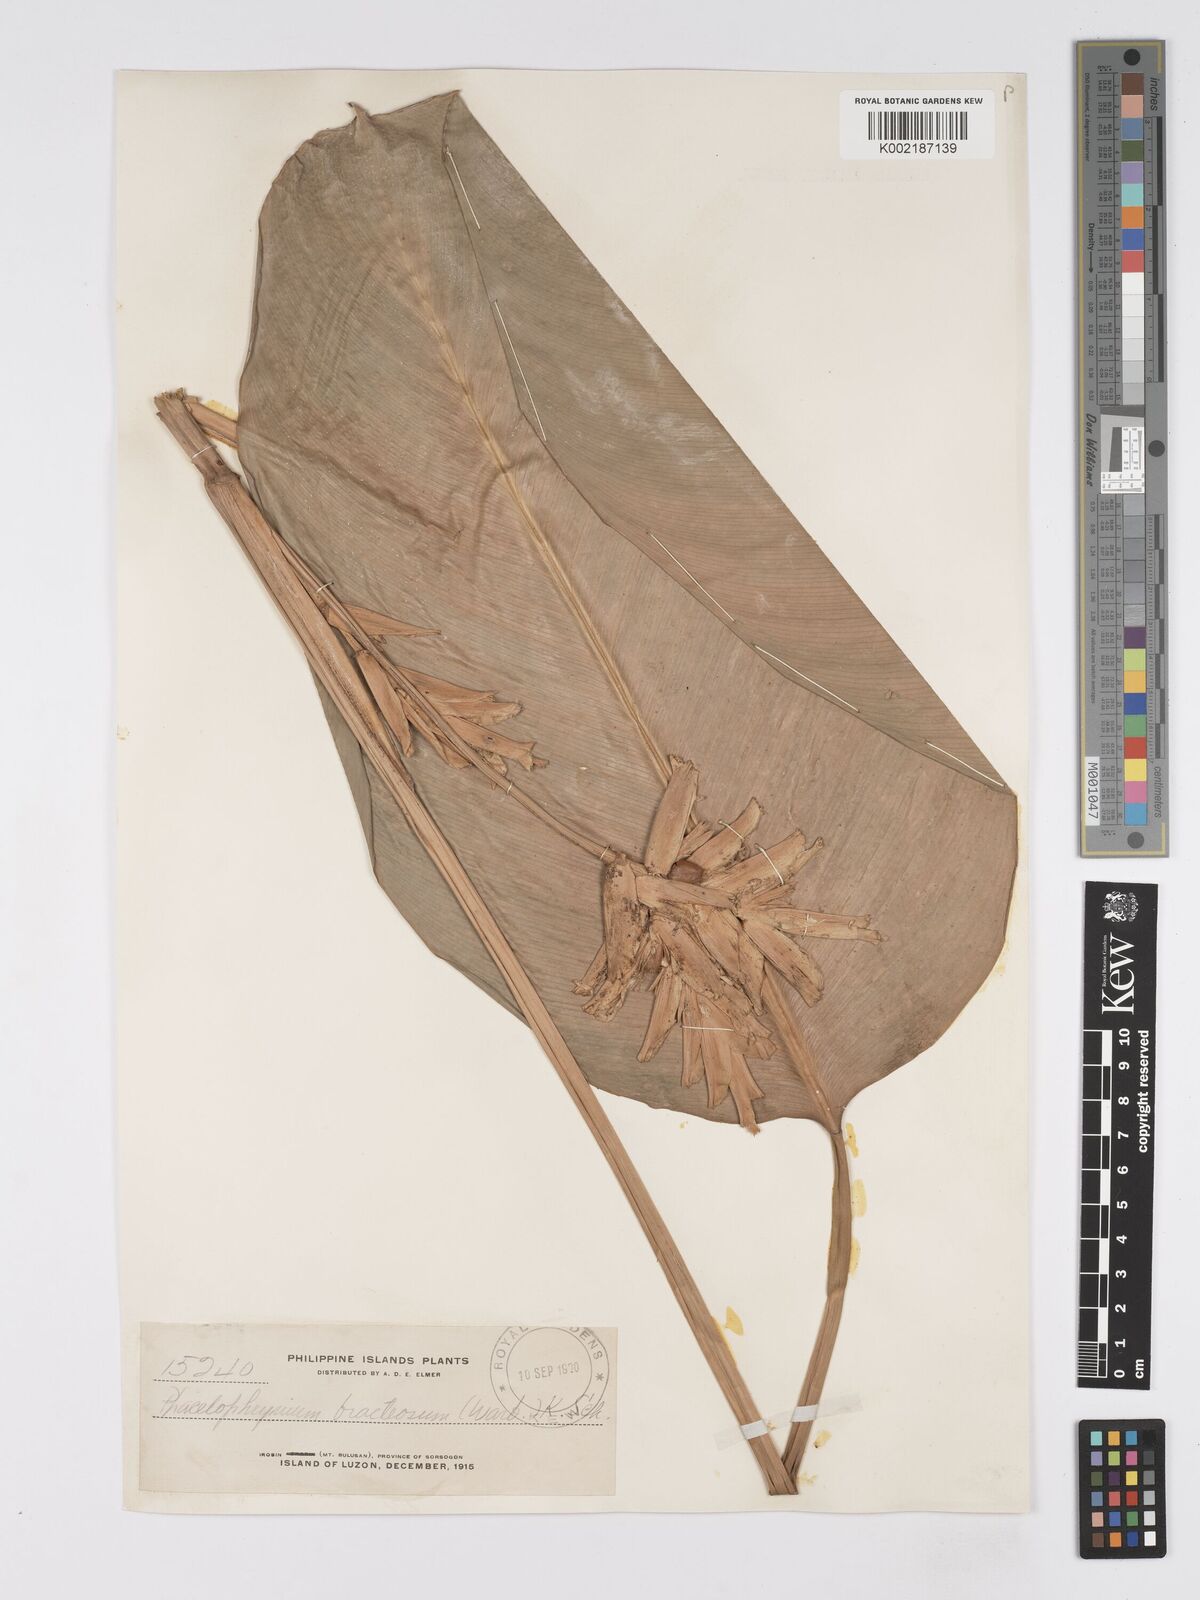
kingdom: Plantae
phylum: Tracheophyta
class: Liliopsida
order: Zingiberales
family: Marantaceae
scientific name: Marantaceae
